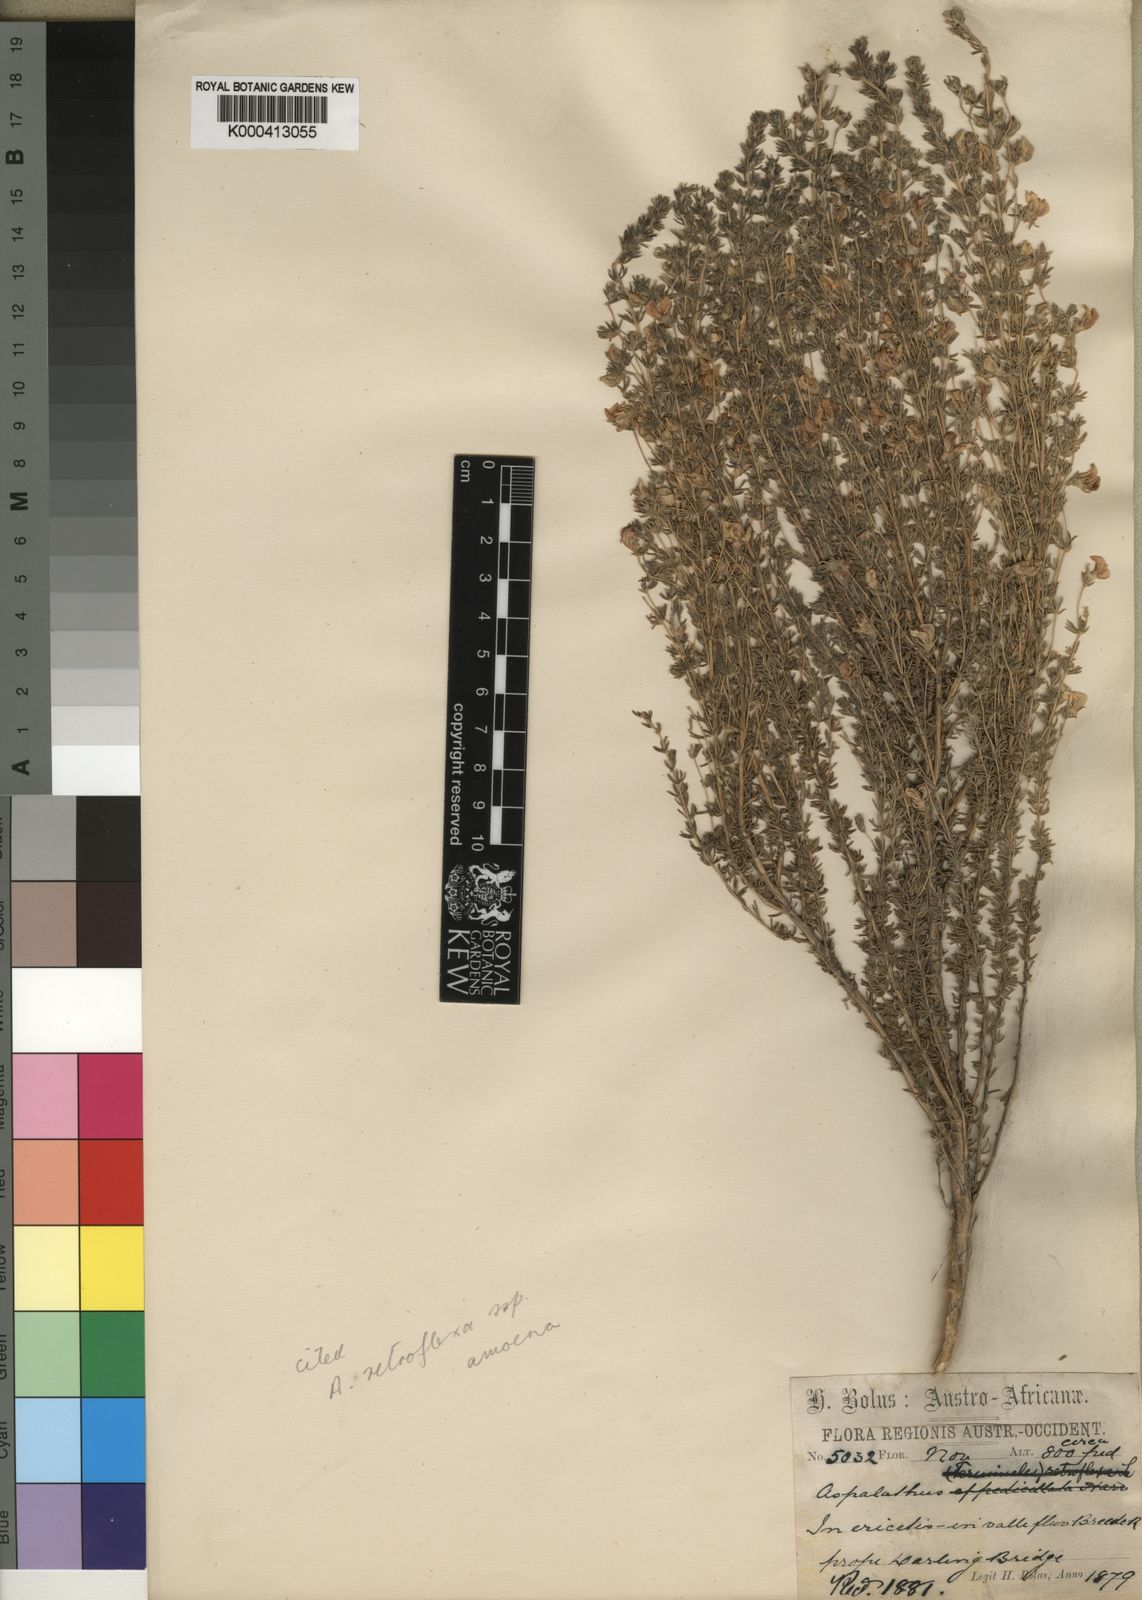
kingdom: Plantae
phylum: Tracheophyta
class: Magnoliopsida
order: Fabales
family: Fabaceae
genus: Aspalathus
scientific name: Aspalathus retroflexa
